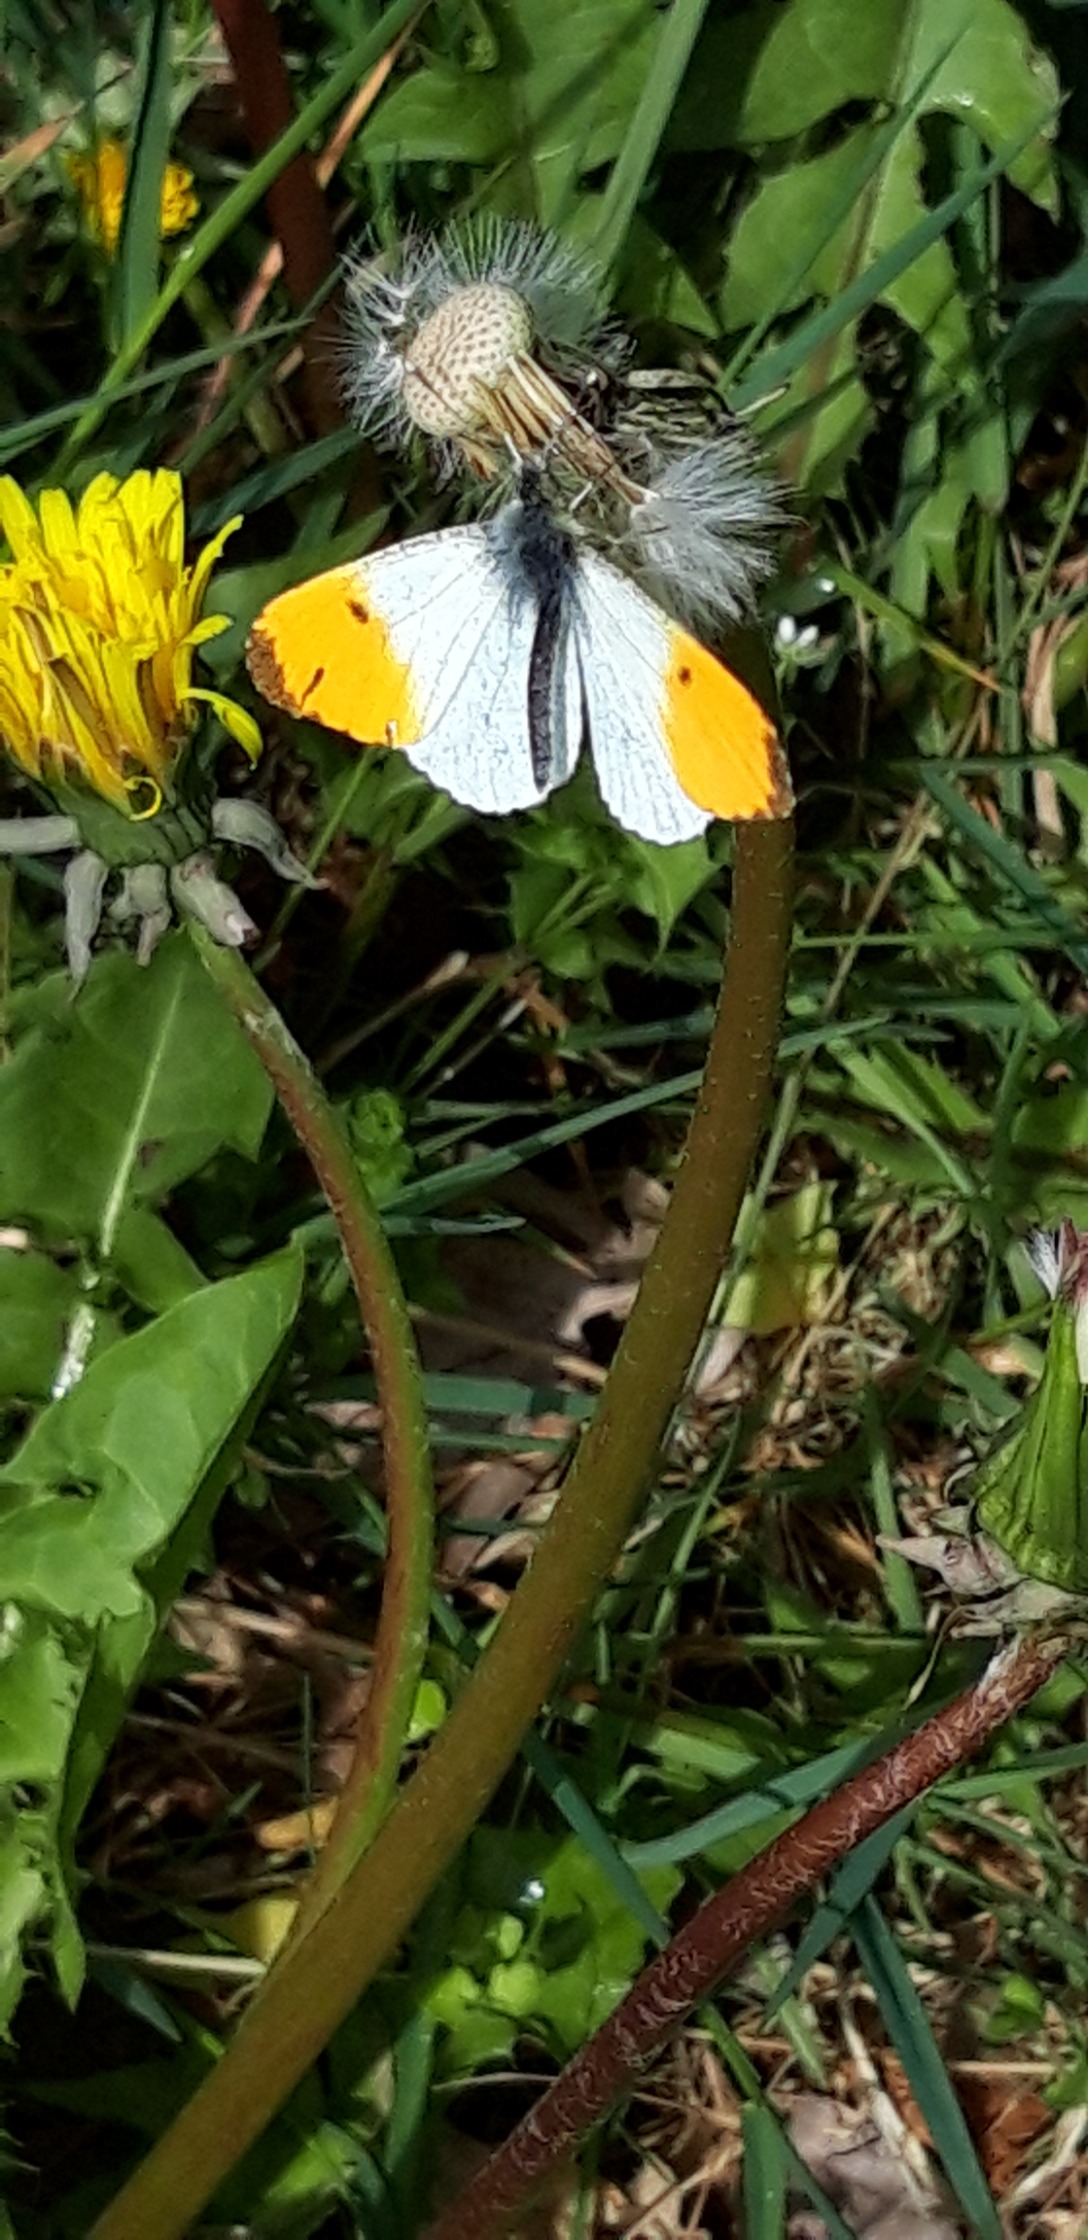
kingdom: Animalia
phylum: Arthropoda
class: Insecta
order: Lepidoptera
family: Pieridae
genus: Anthocharis
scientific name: Anthocharis cardamines
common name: Aurora
